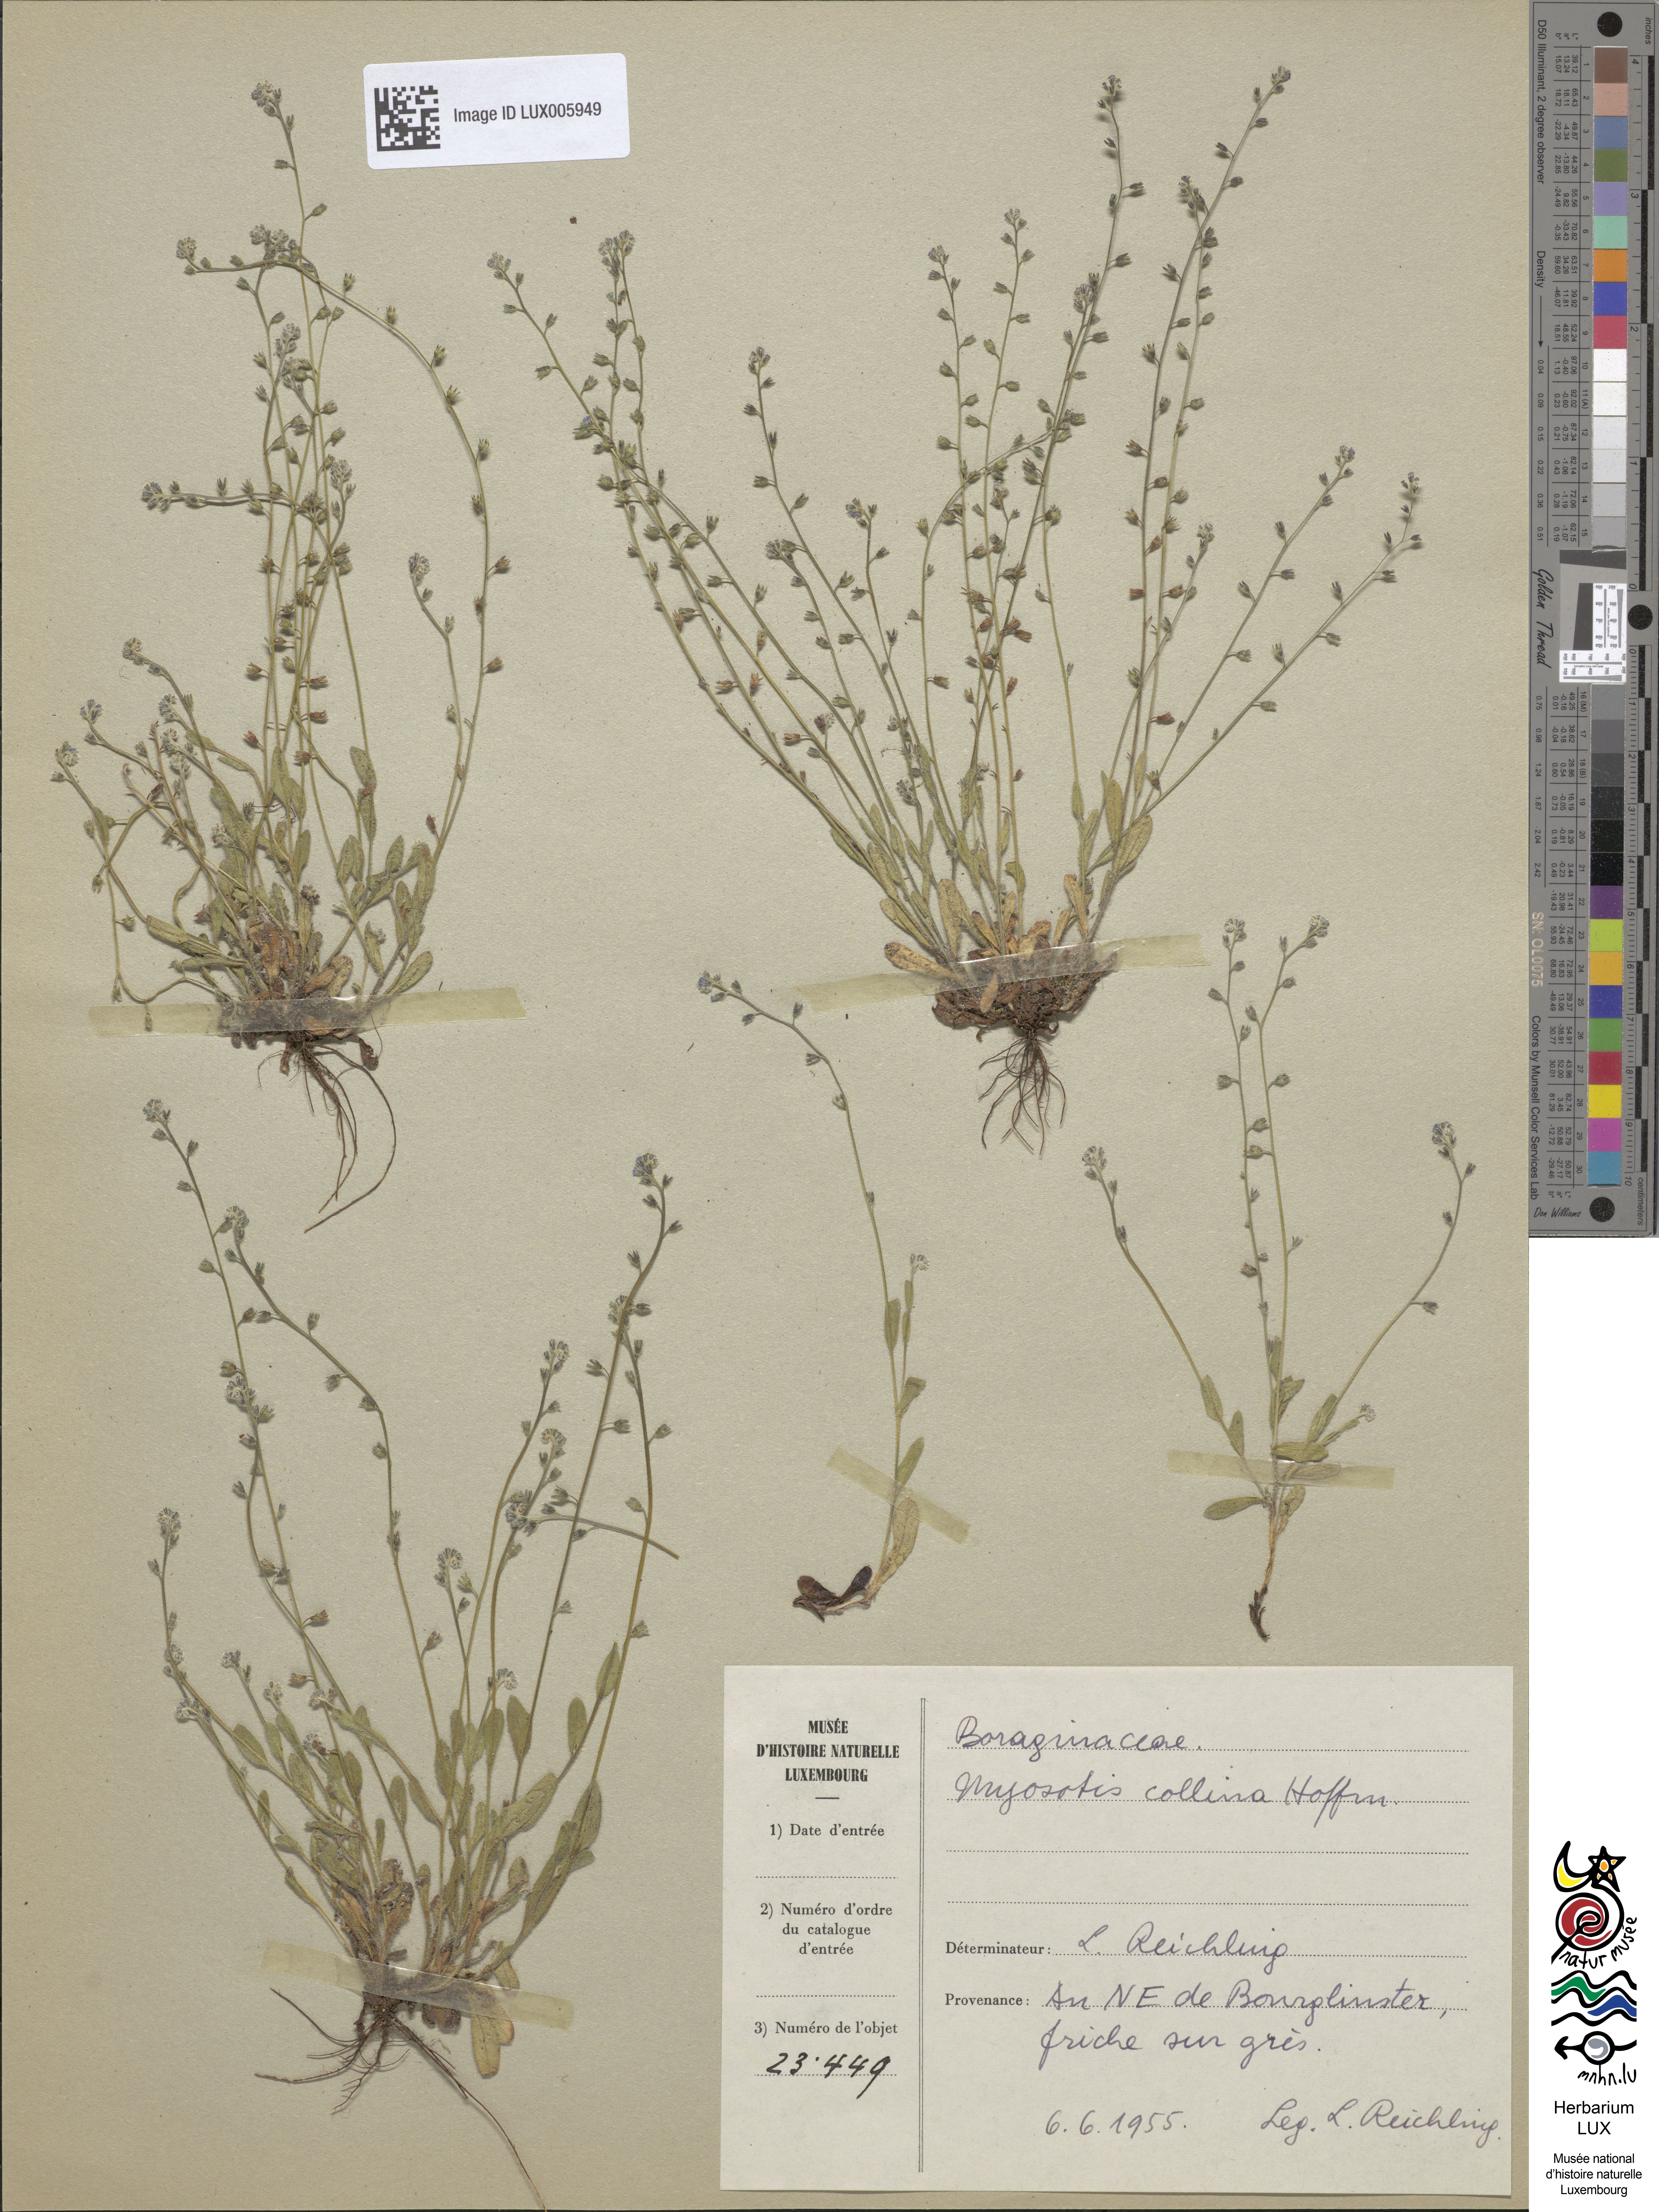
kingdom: Plantae
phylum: Tracheophyta
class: Magnoliopsida
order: Boraginales
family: Boraginaceae
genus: Myosotis
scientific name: Myosotis discolor
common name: Changing forget-me-not
